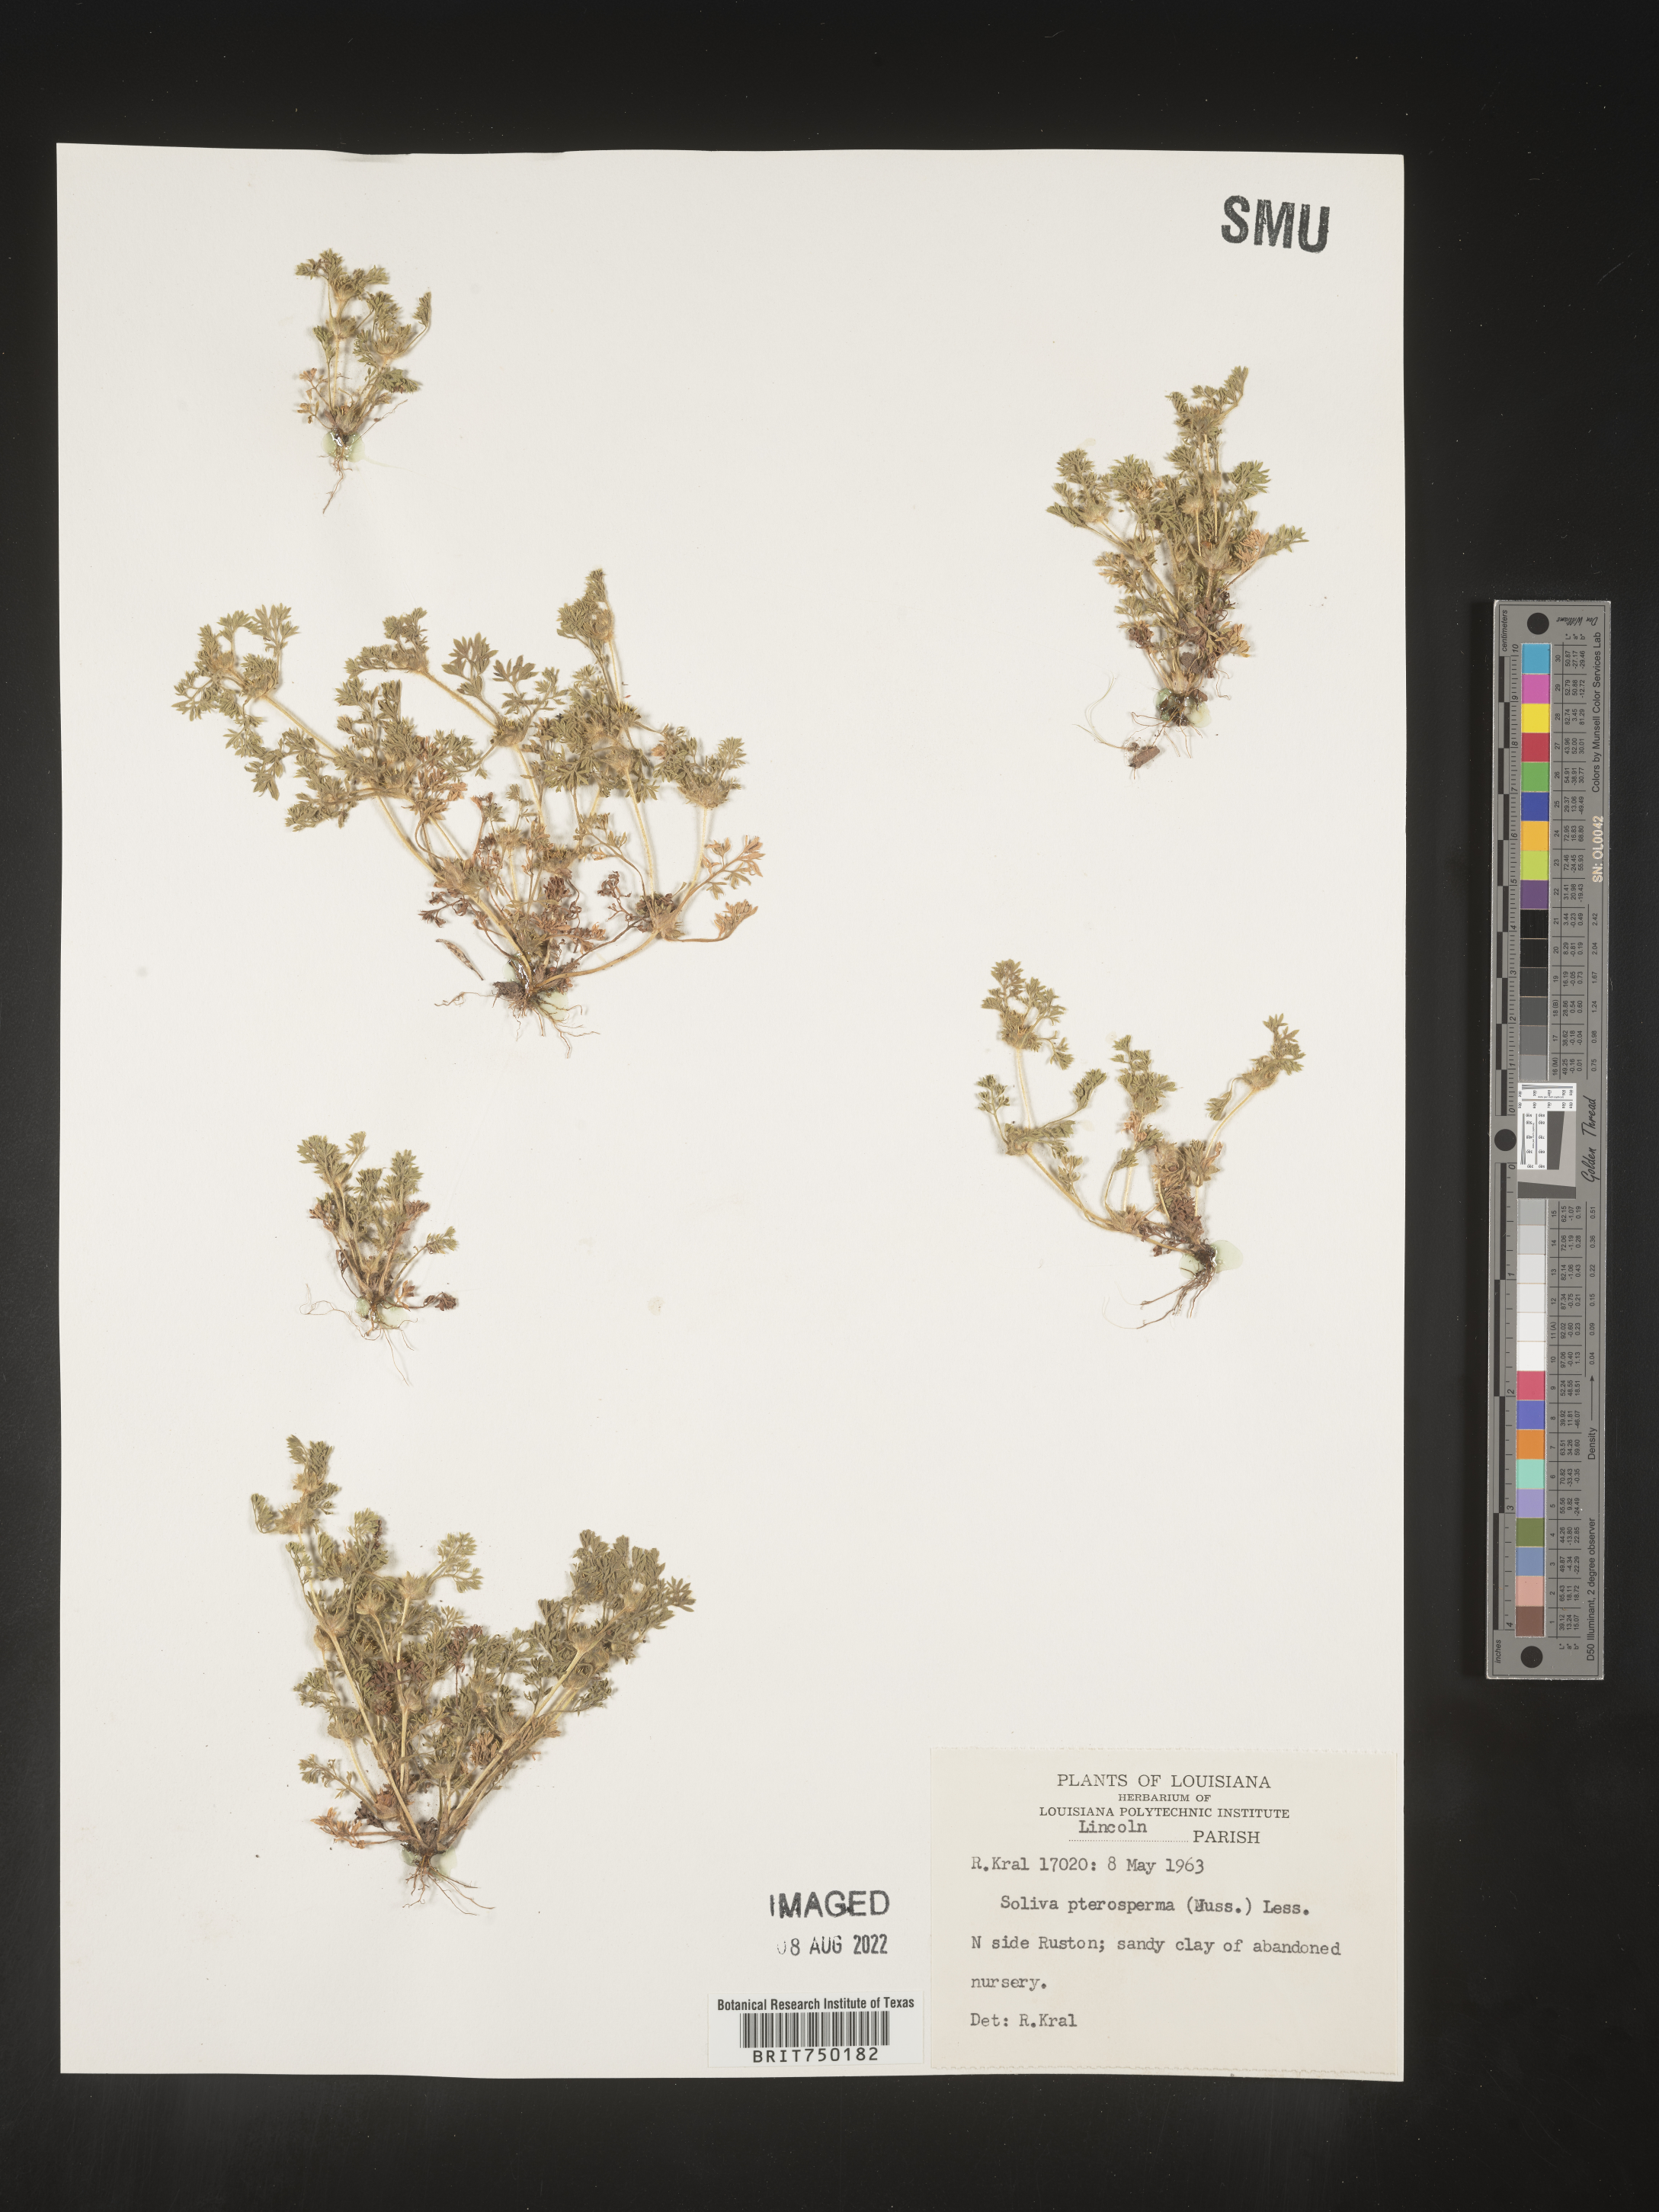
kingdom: Plantae
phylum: Tracheophyta
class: Magnoliopsida
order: Asterales
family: Asteraceae
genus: Soliva
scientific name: Soliva sessilis
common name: Field burrweed
